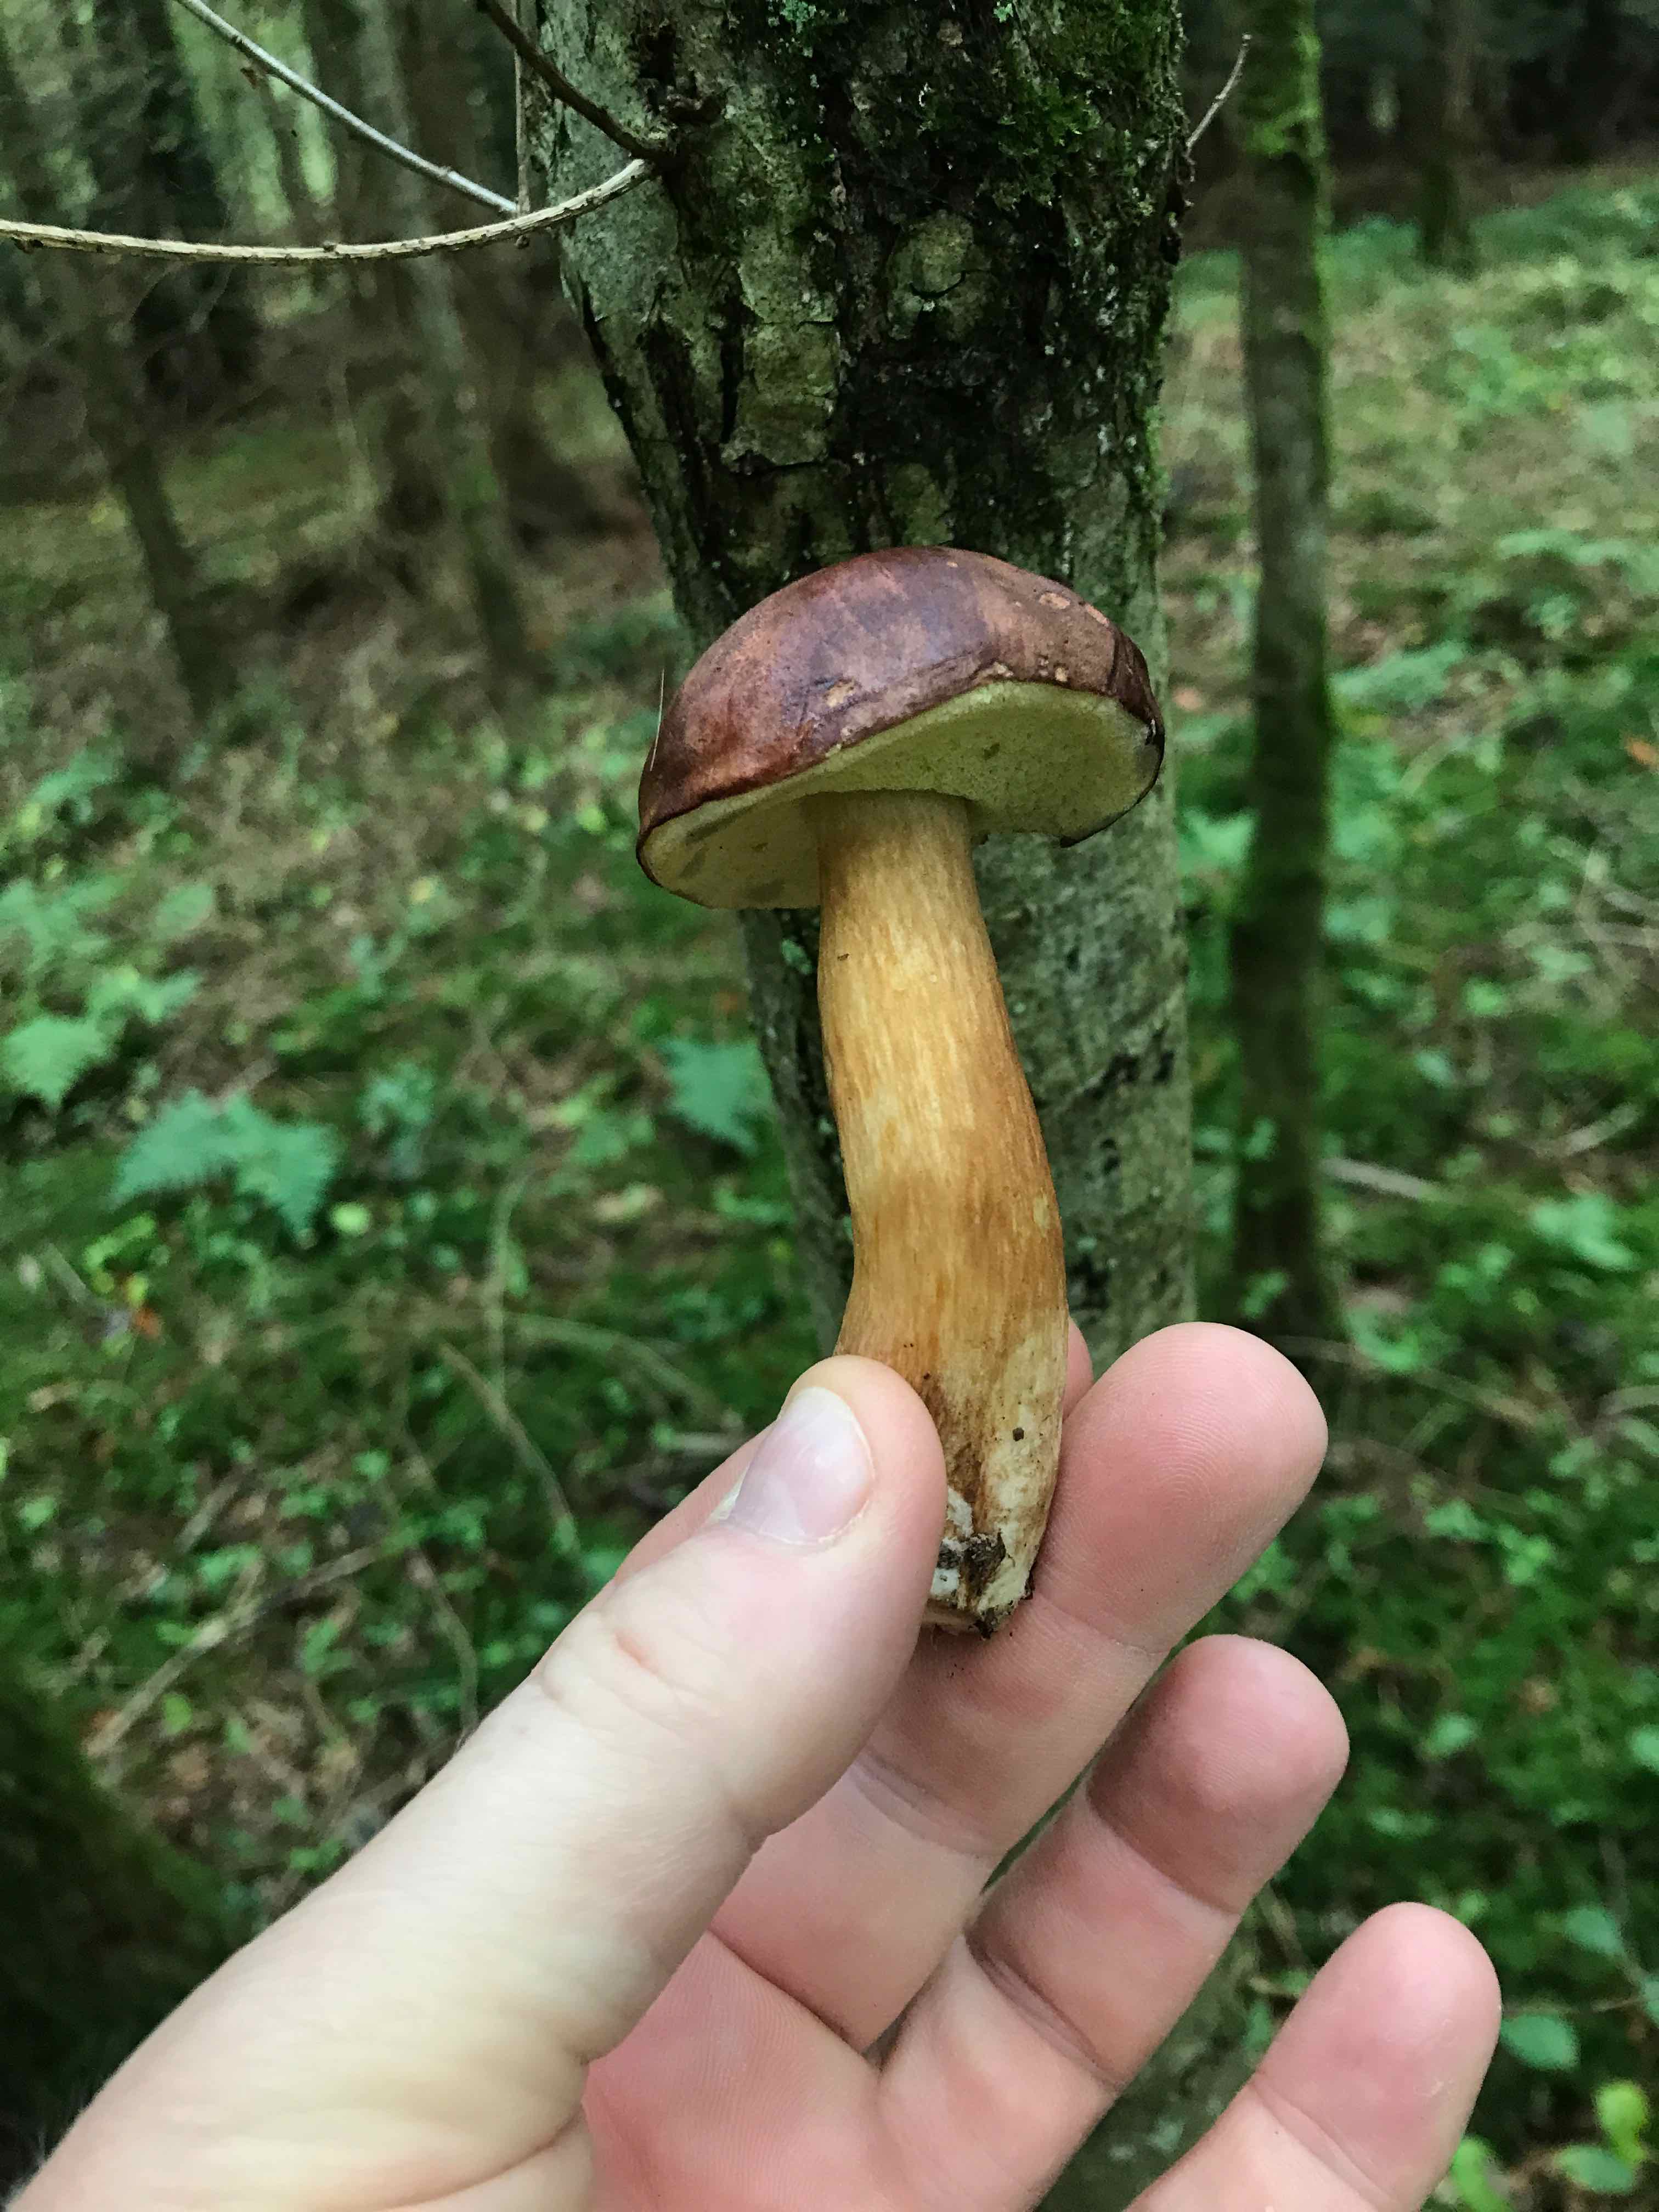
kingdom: Fungi
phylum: Basidiomycota
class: Agaricomycetes
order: Boletales
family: Boletaceae
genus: Imleria
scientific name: Imleria badia
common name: brunstokket rørhat
